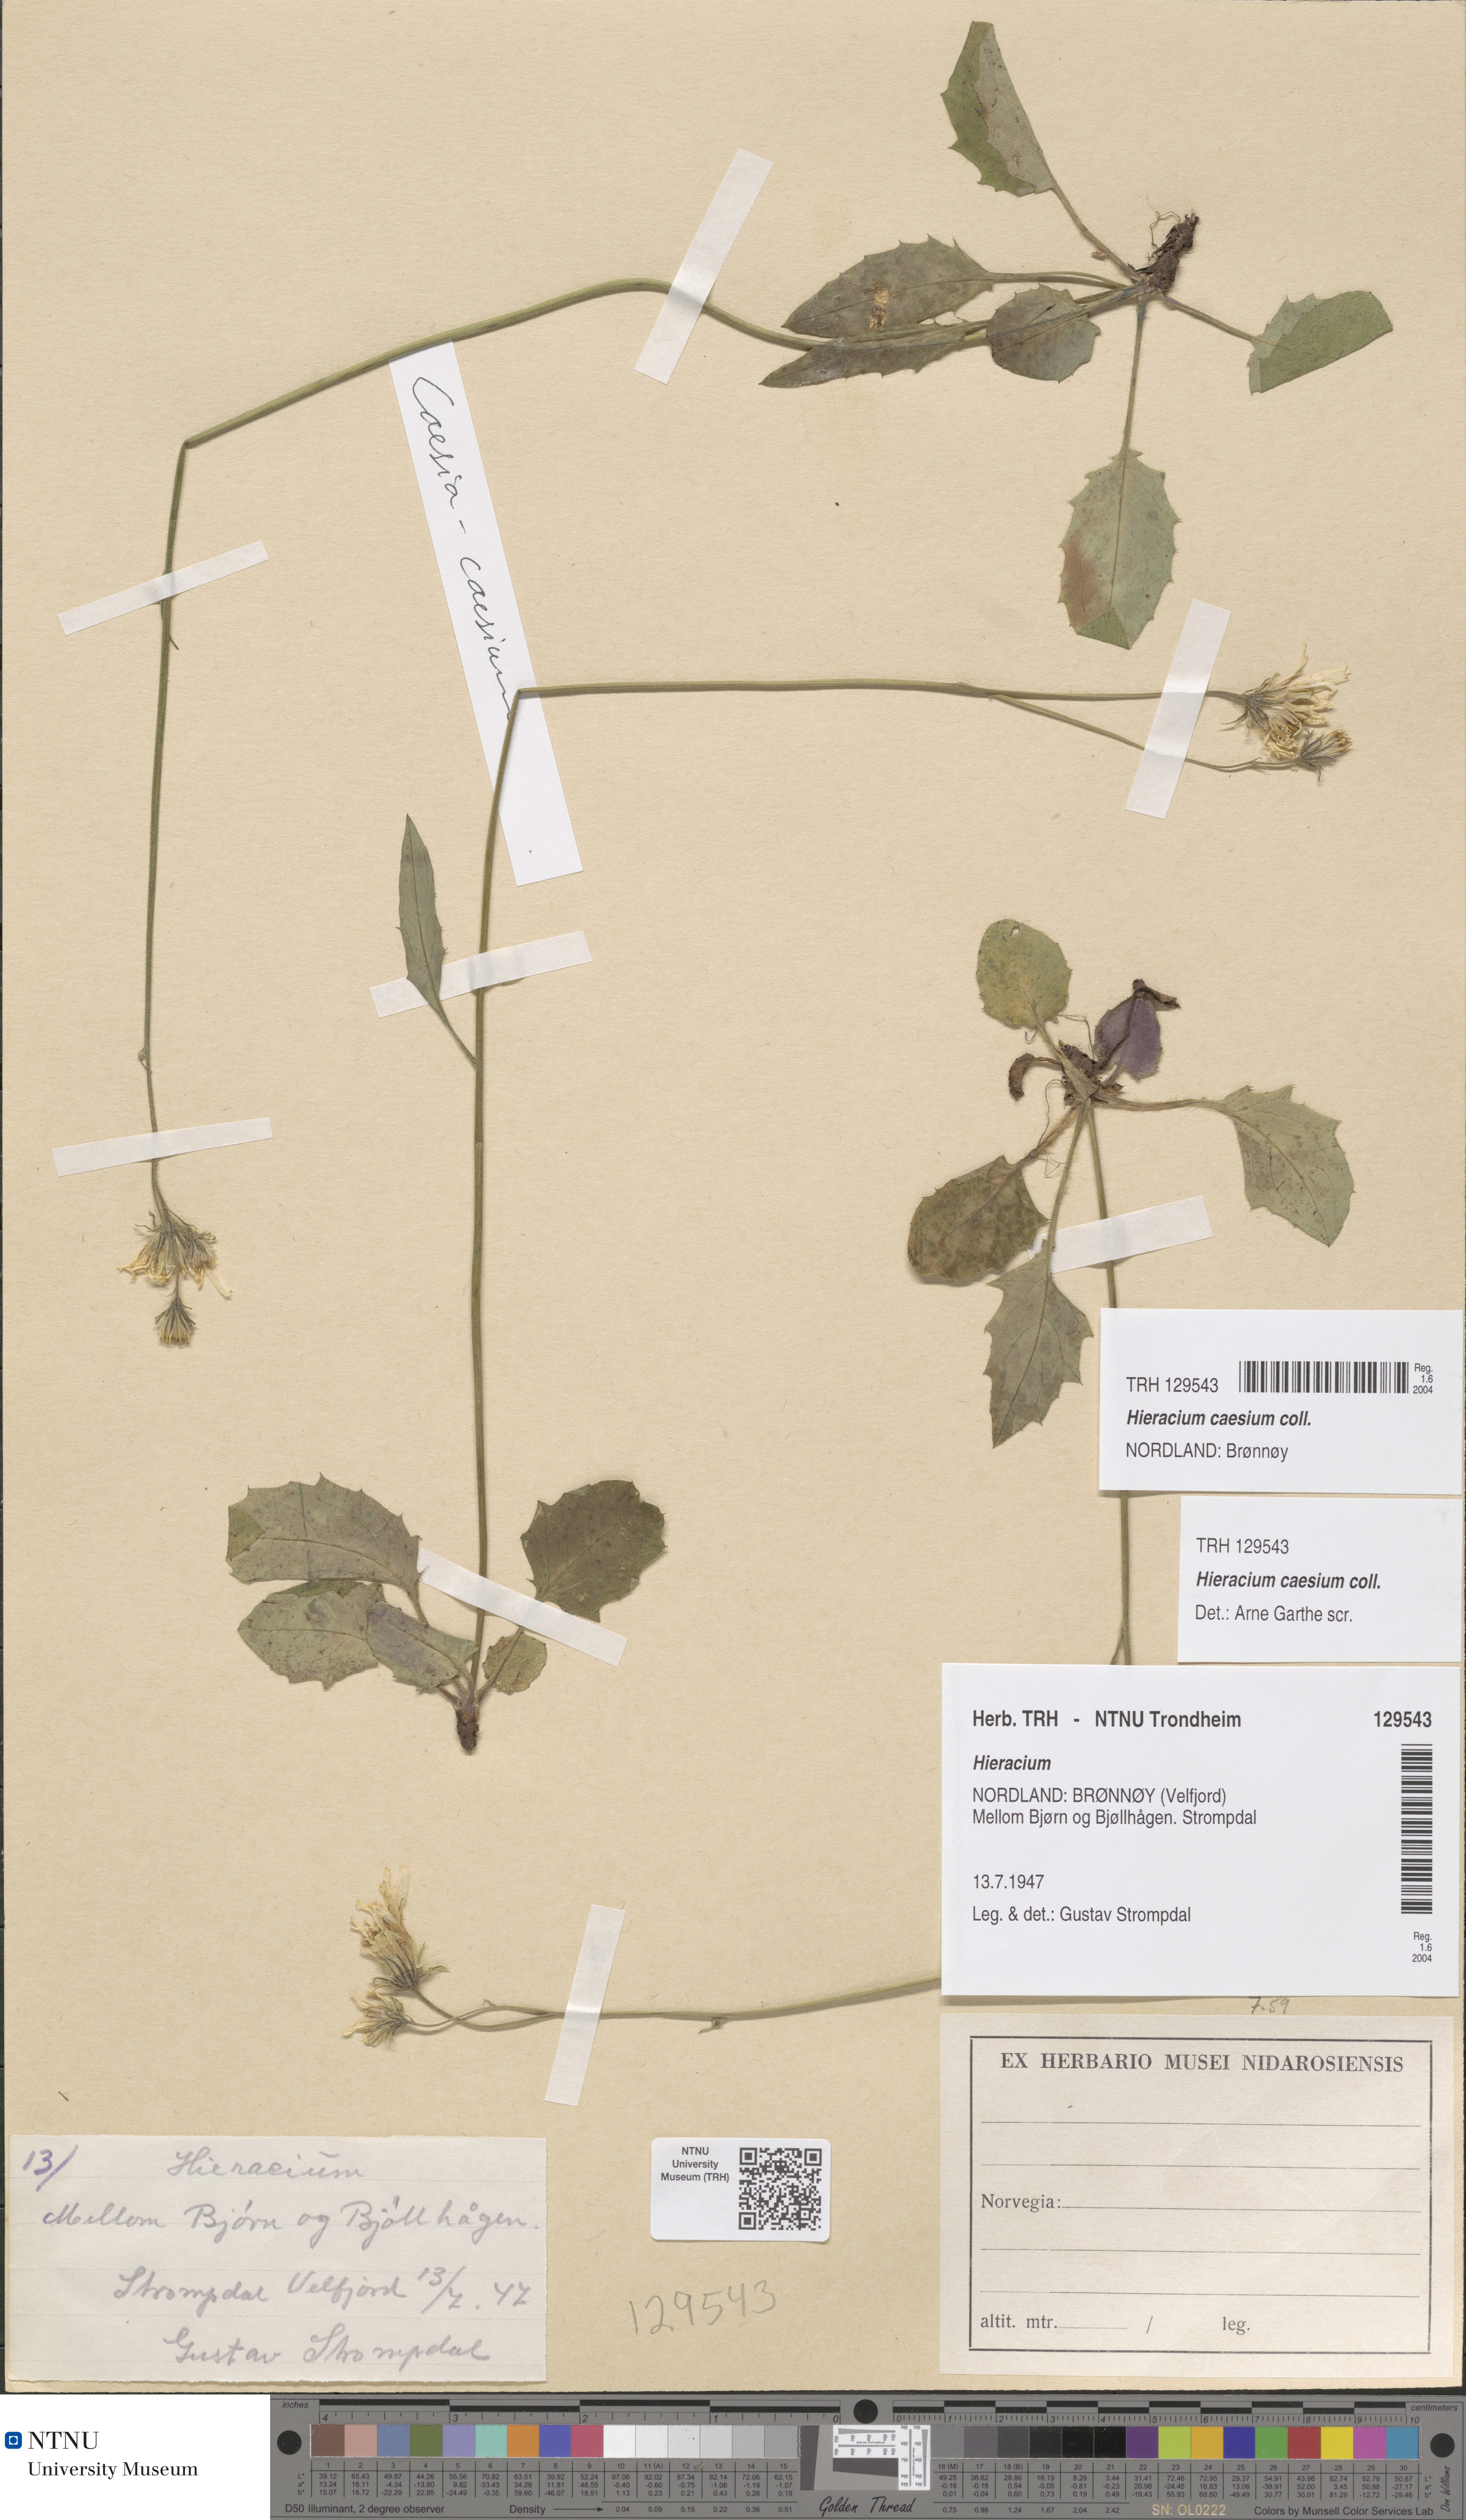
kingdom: Plantae
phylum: Tracheophyta
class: Magnoliopsida
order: Asterales
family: Asteraceae
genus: Hieracium
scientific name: Hieracium caesium
